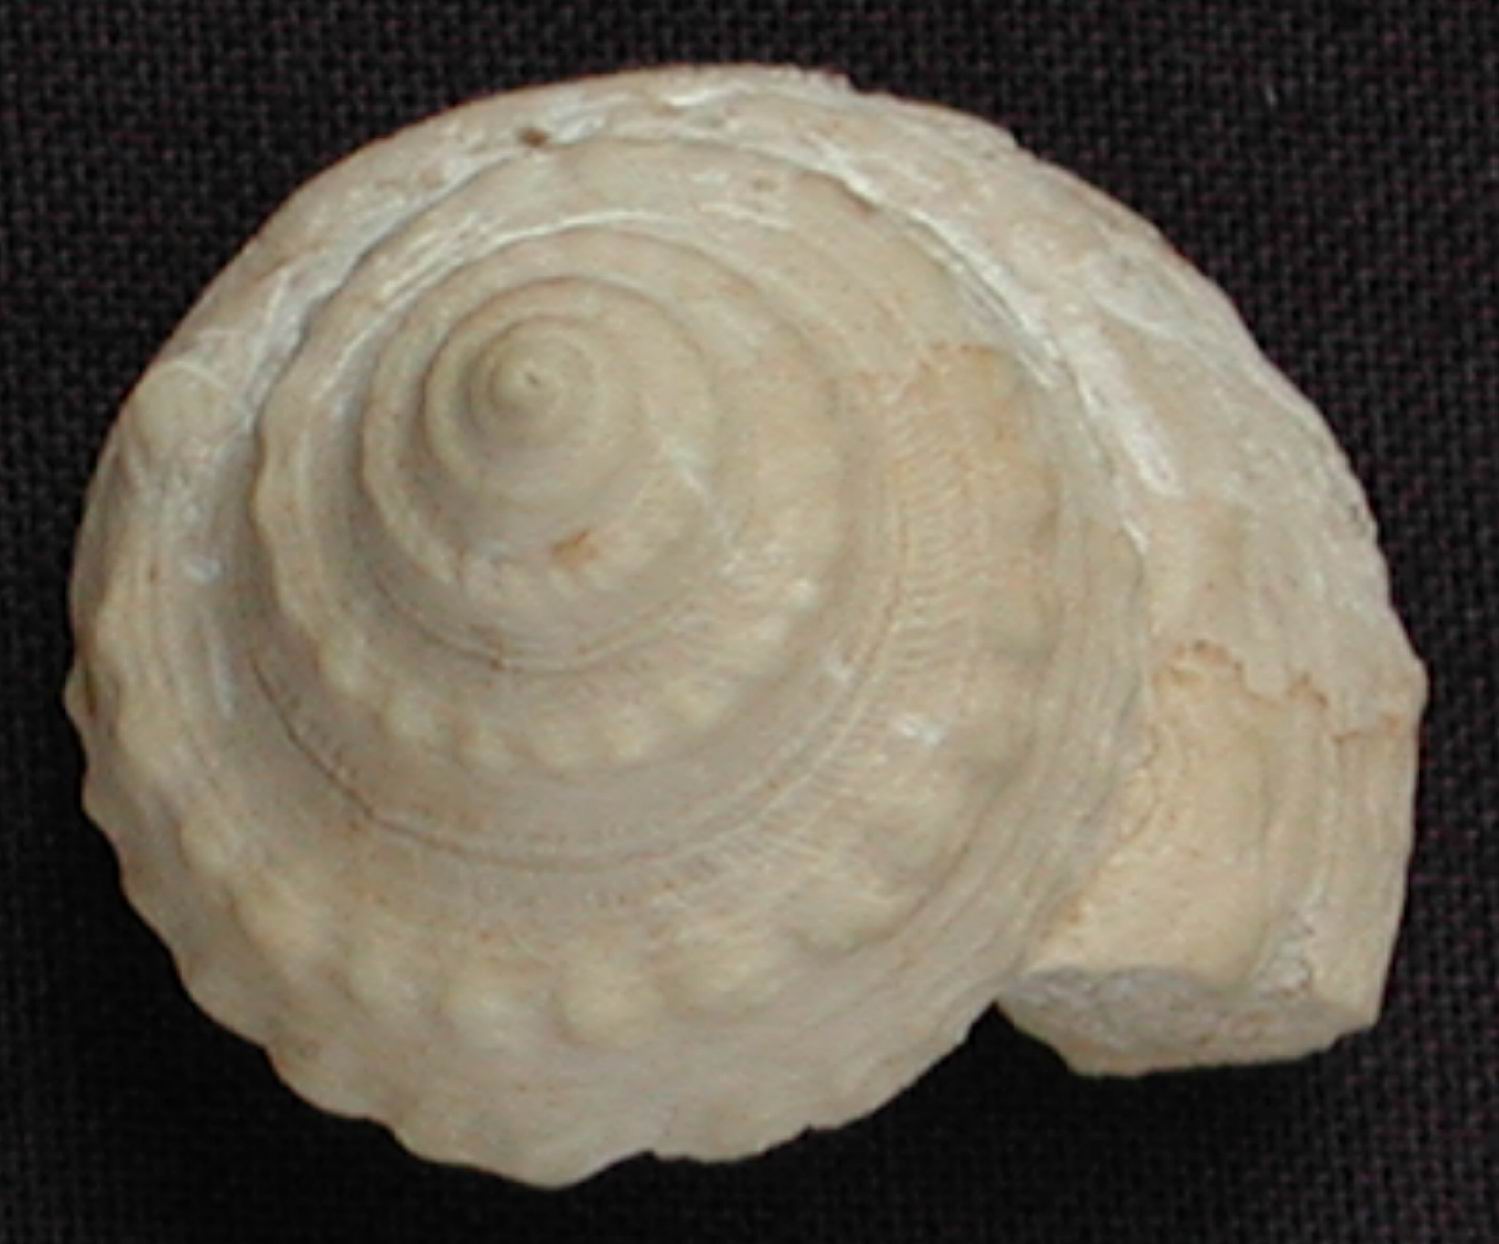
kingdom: Animalia
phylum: Mollusca
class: Gastropoda
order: Pleurotomariida
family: Pleurotomariidae
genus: Pleurotomaria
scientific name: Pleurotomaria wanderbachi
